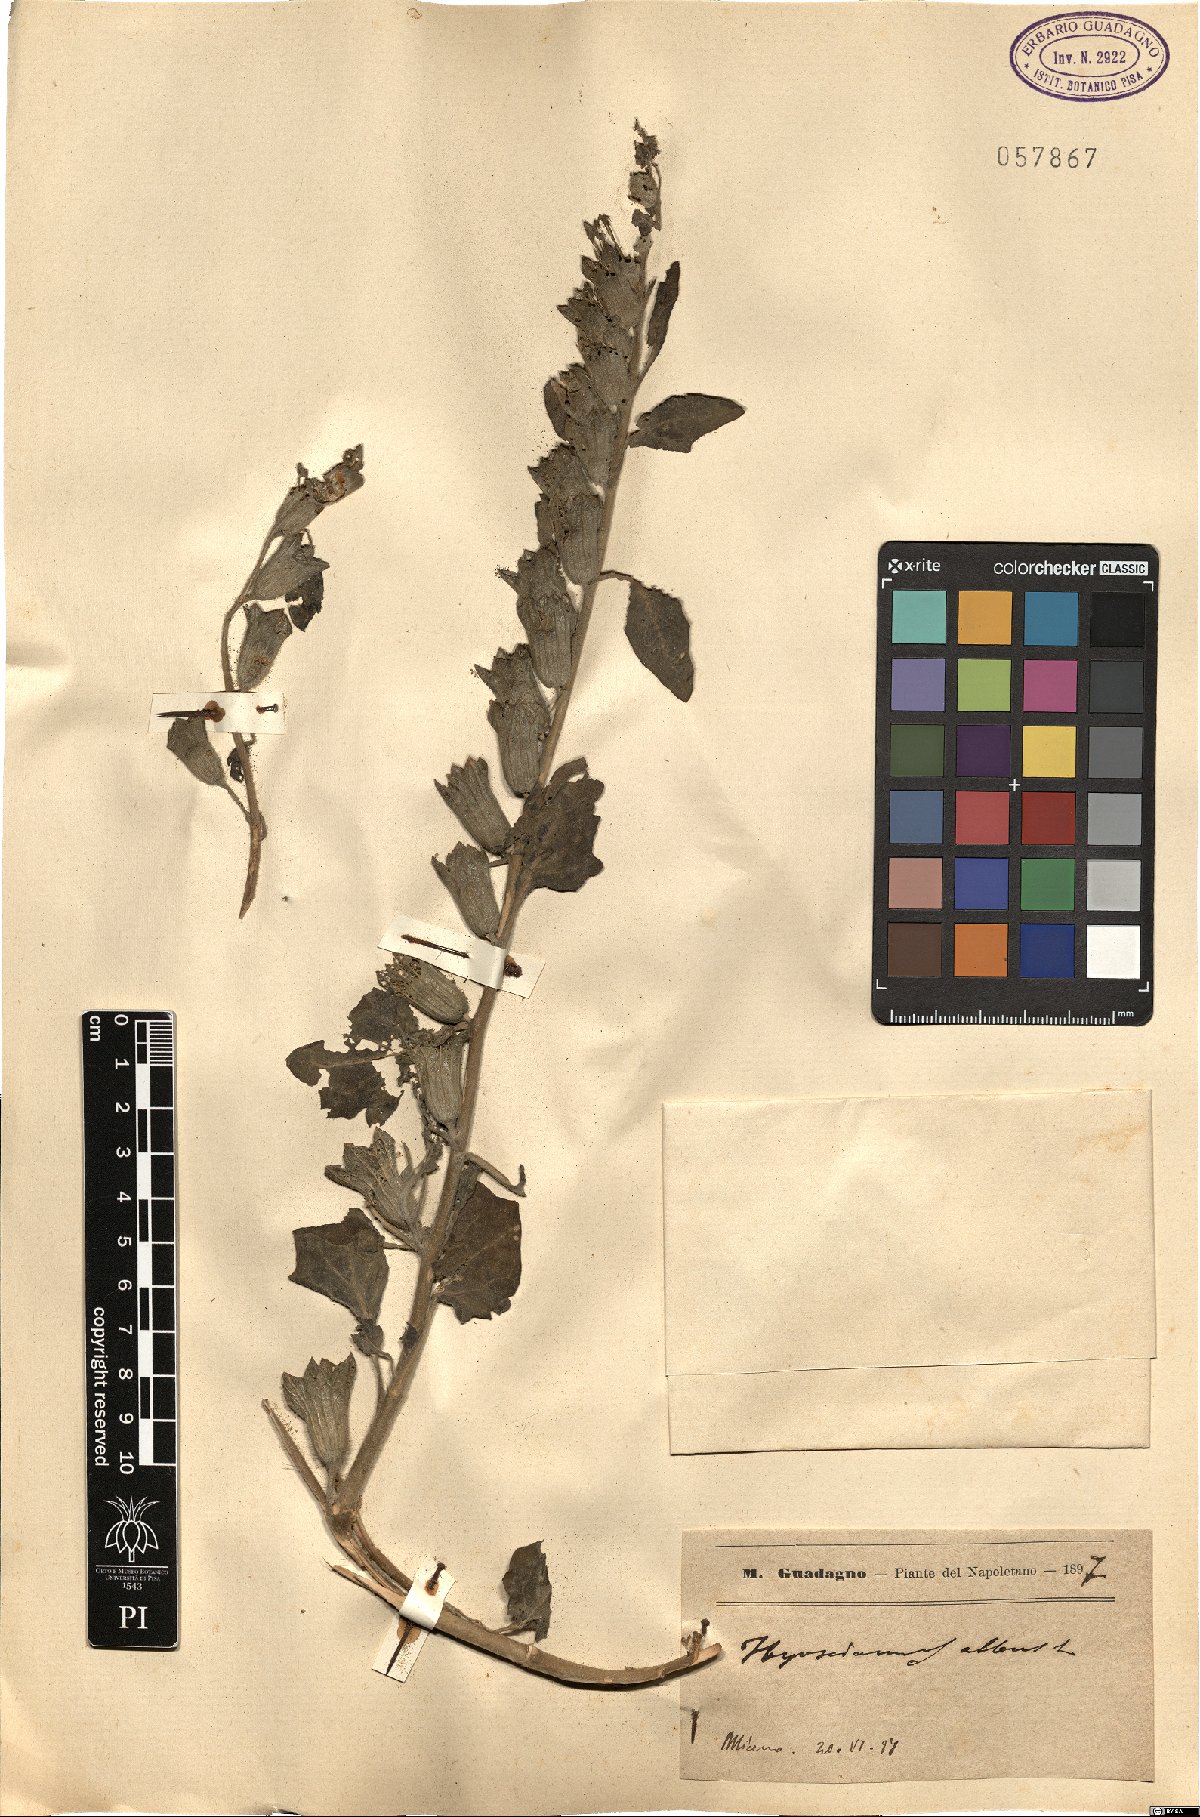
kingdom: Plantae
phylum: Tracheophyta
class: Magnoliopsida
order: Solanales
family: Solanaceae
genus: Hyoscyamus
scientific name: Hyoscyamus albus
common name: White henbane
